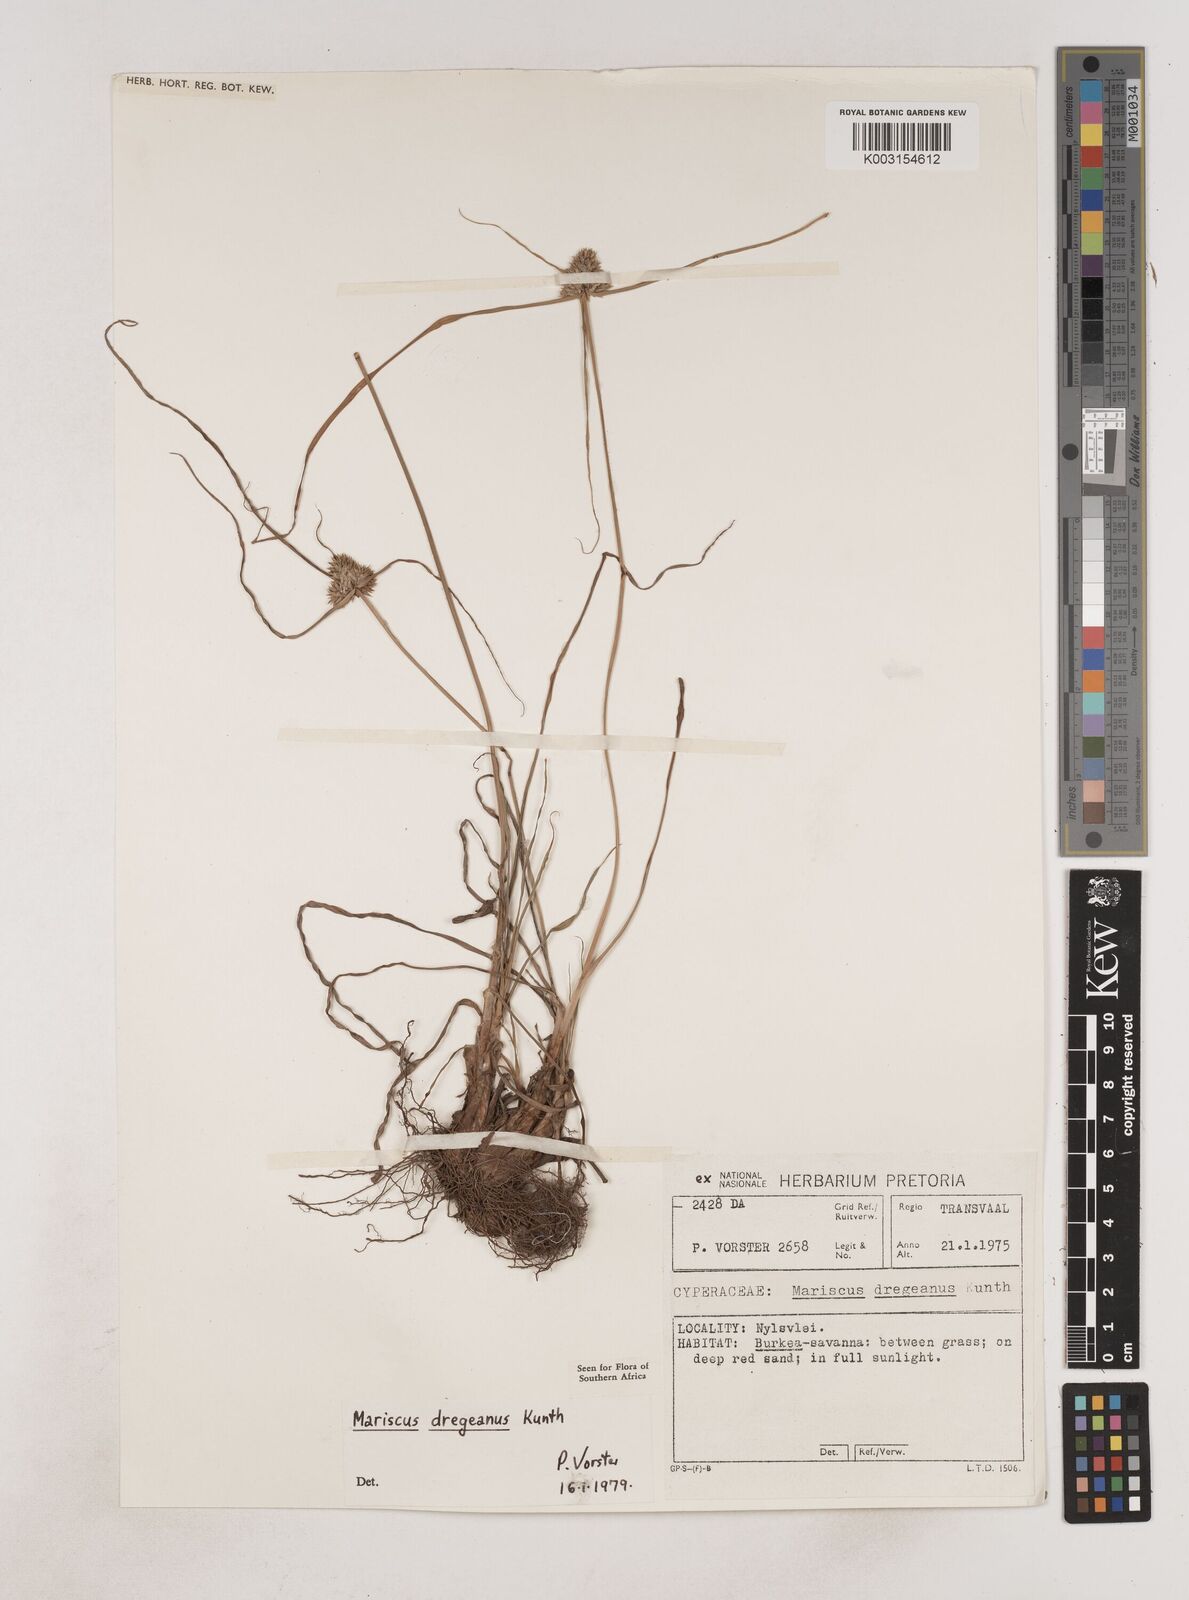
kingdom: Plantae
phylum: Tracheophyta
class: Liliopsida
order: Poales
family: Cyperaceae
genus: Cyperus
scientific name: Cyperus dubius
